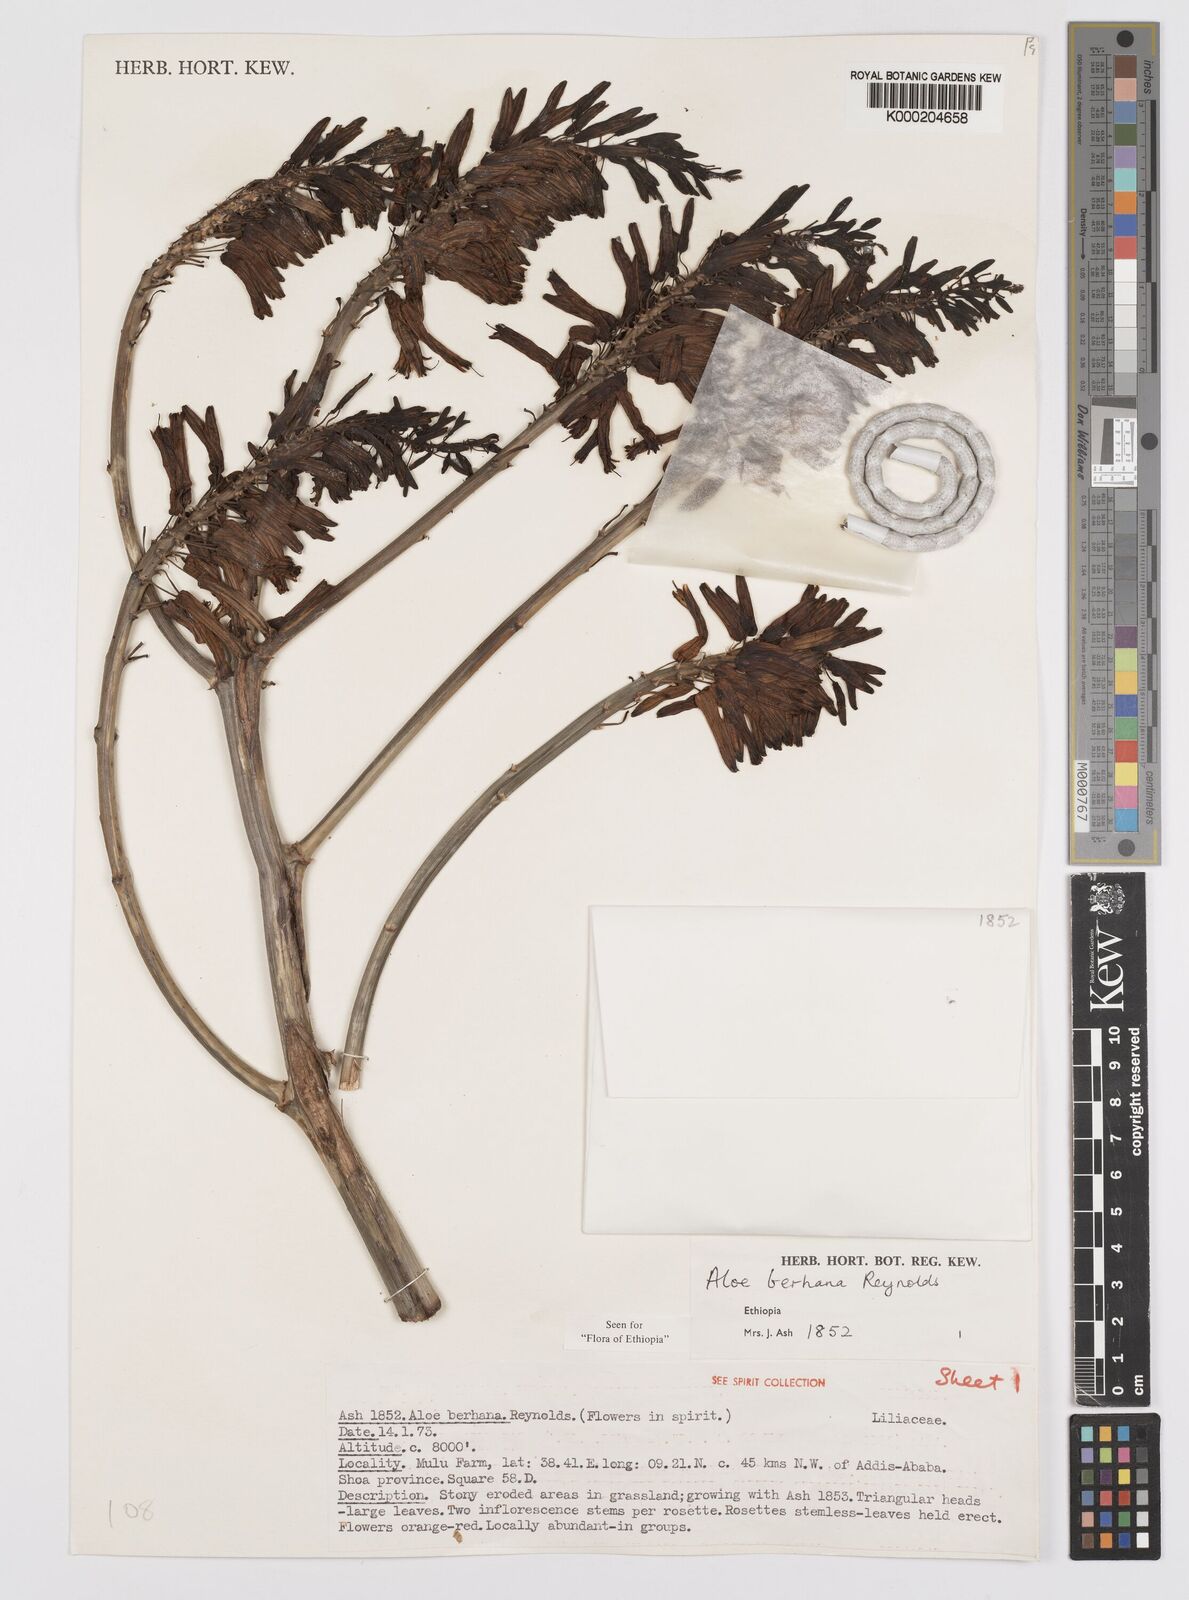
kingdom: Plantae
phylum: Tracheophyta
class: Liliopsida
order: Asparagales
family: Asphodelaceae
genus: Aloe
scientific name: Aloe debrana
